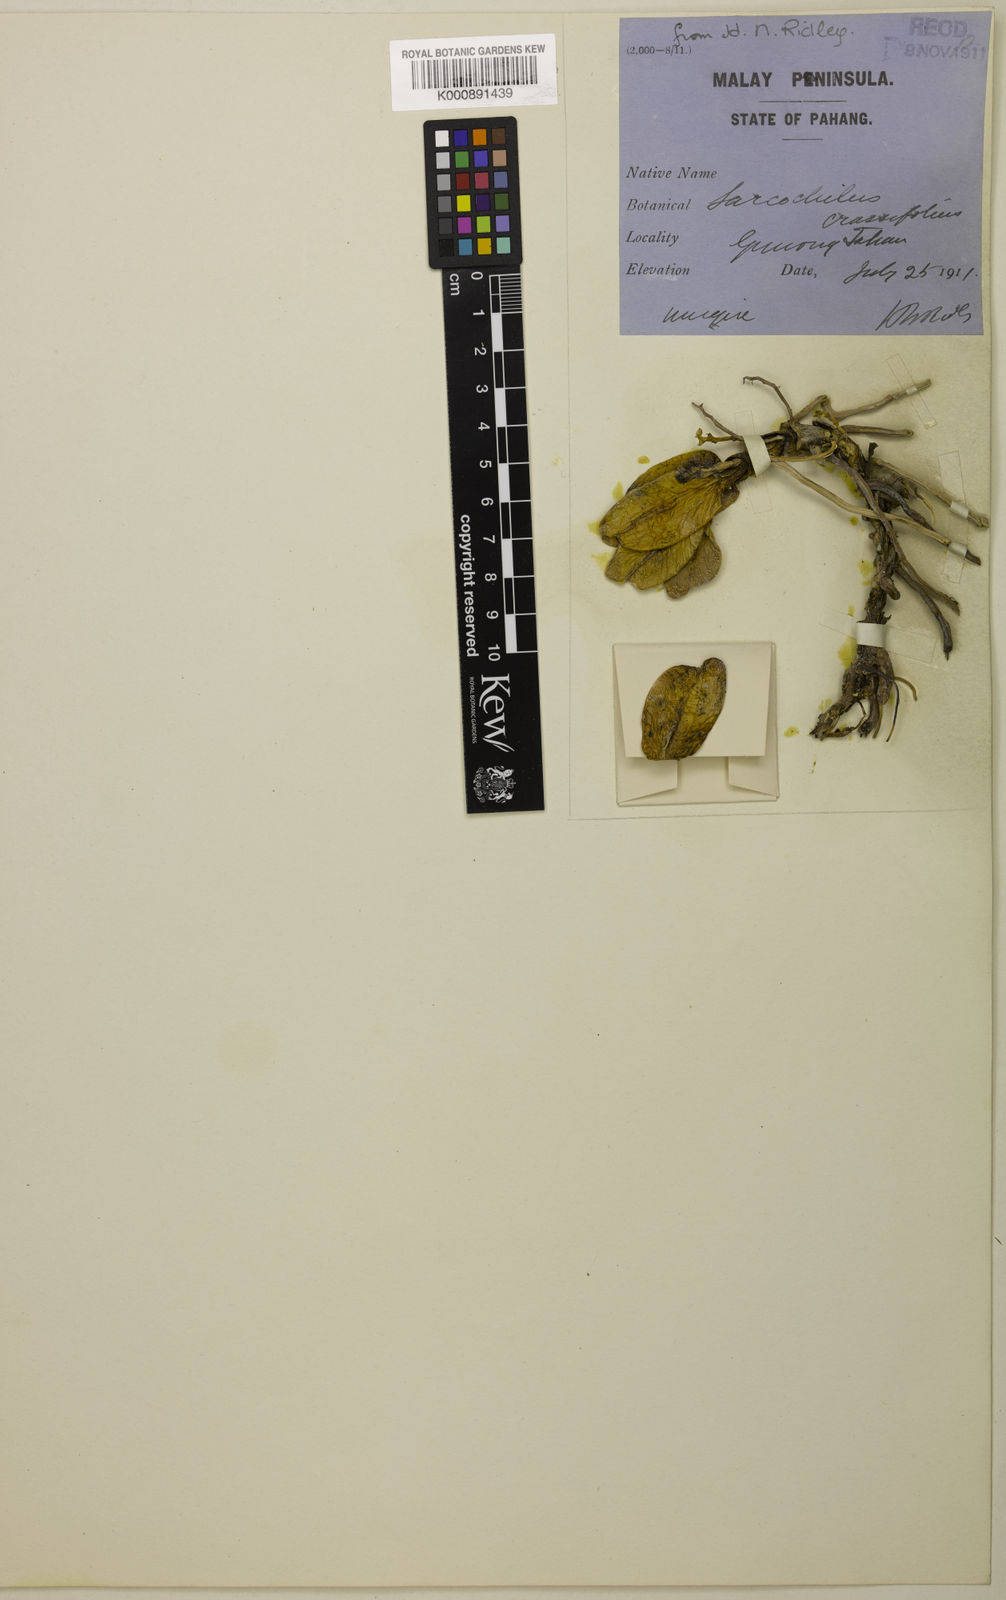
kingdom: Plantae
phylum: Tracheophyta
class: Liliopsida
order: Asparagales
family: Orchidaceae
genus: Chroniochilus
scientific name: Chroniochilus
